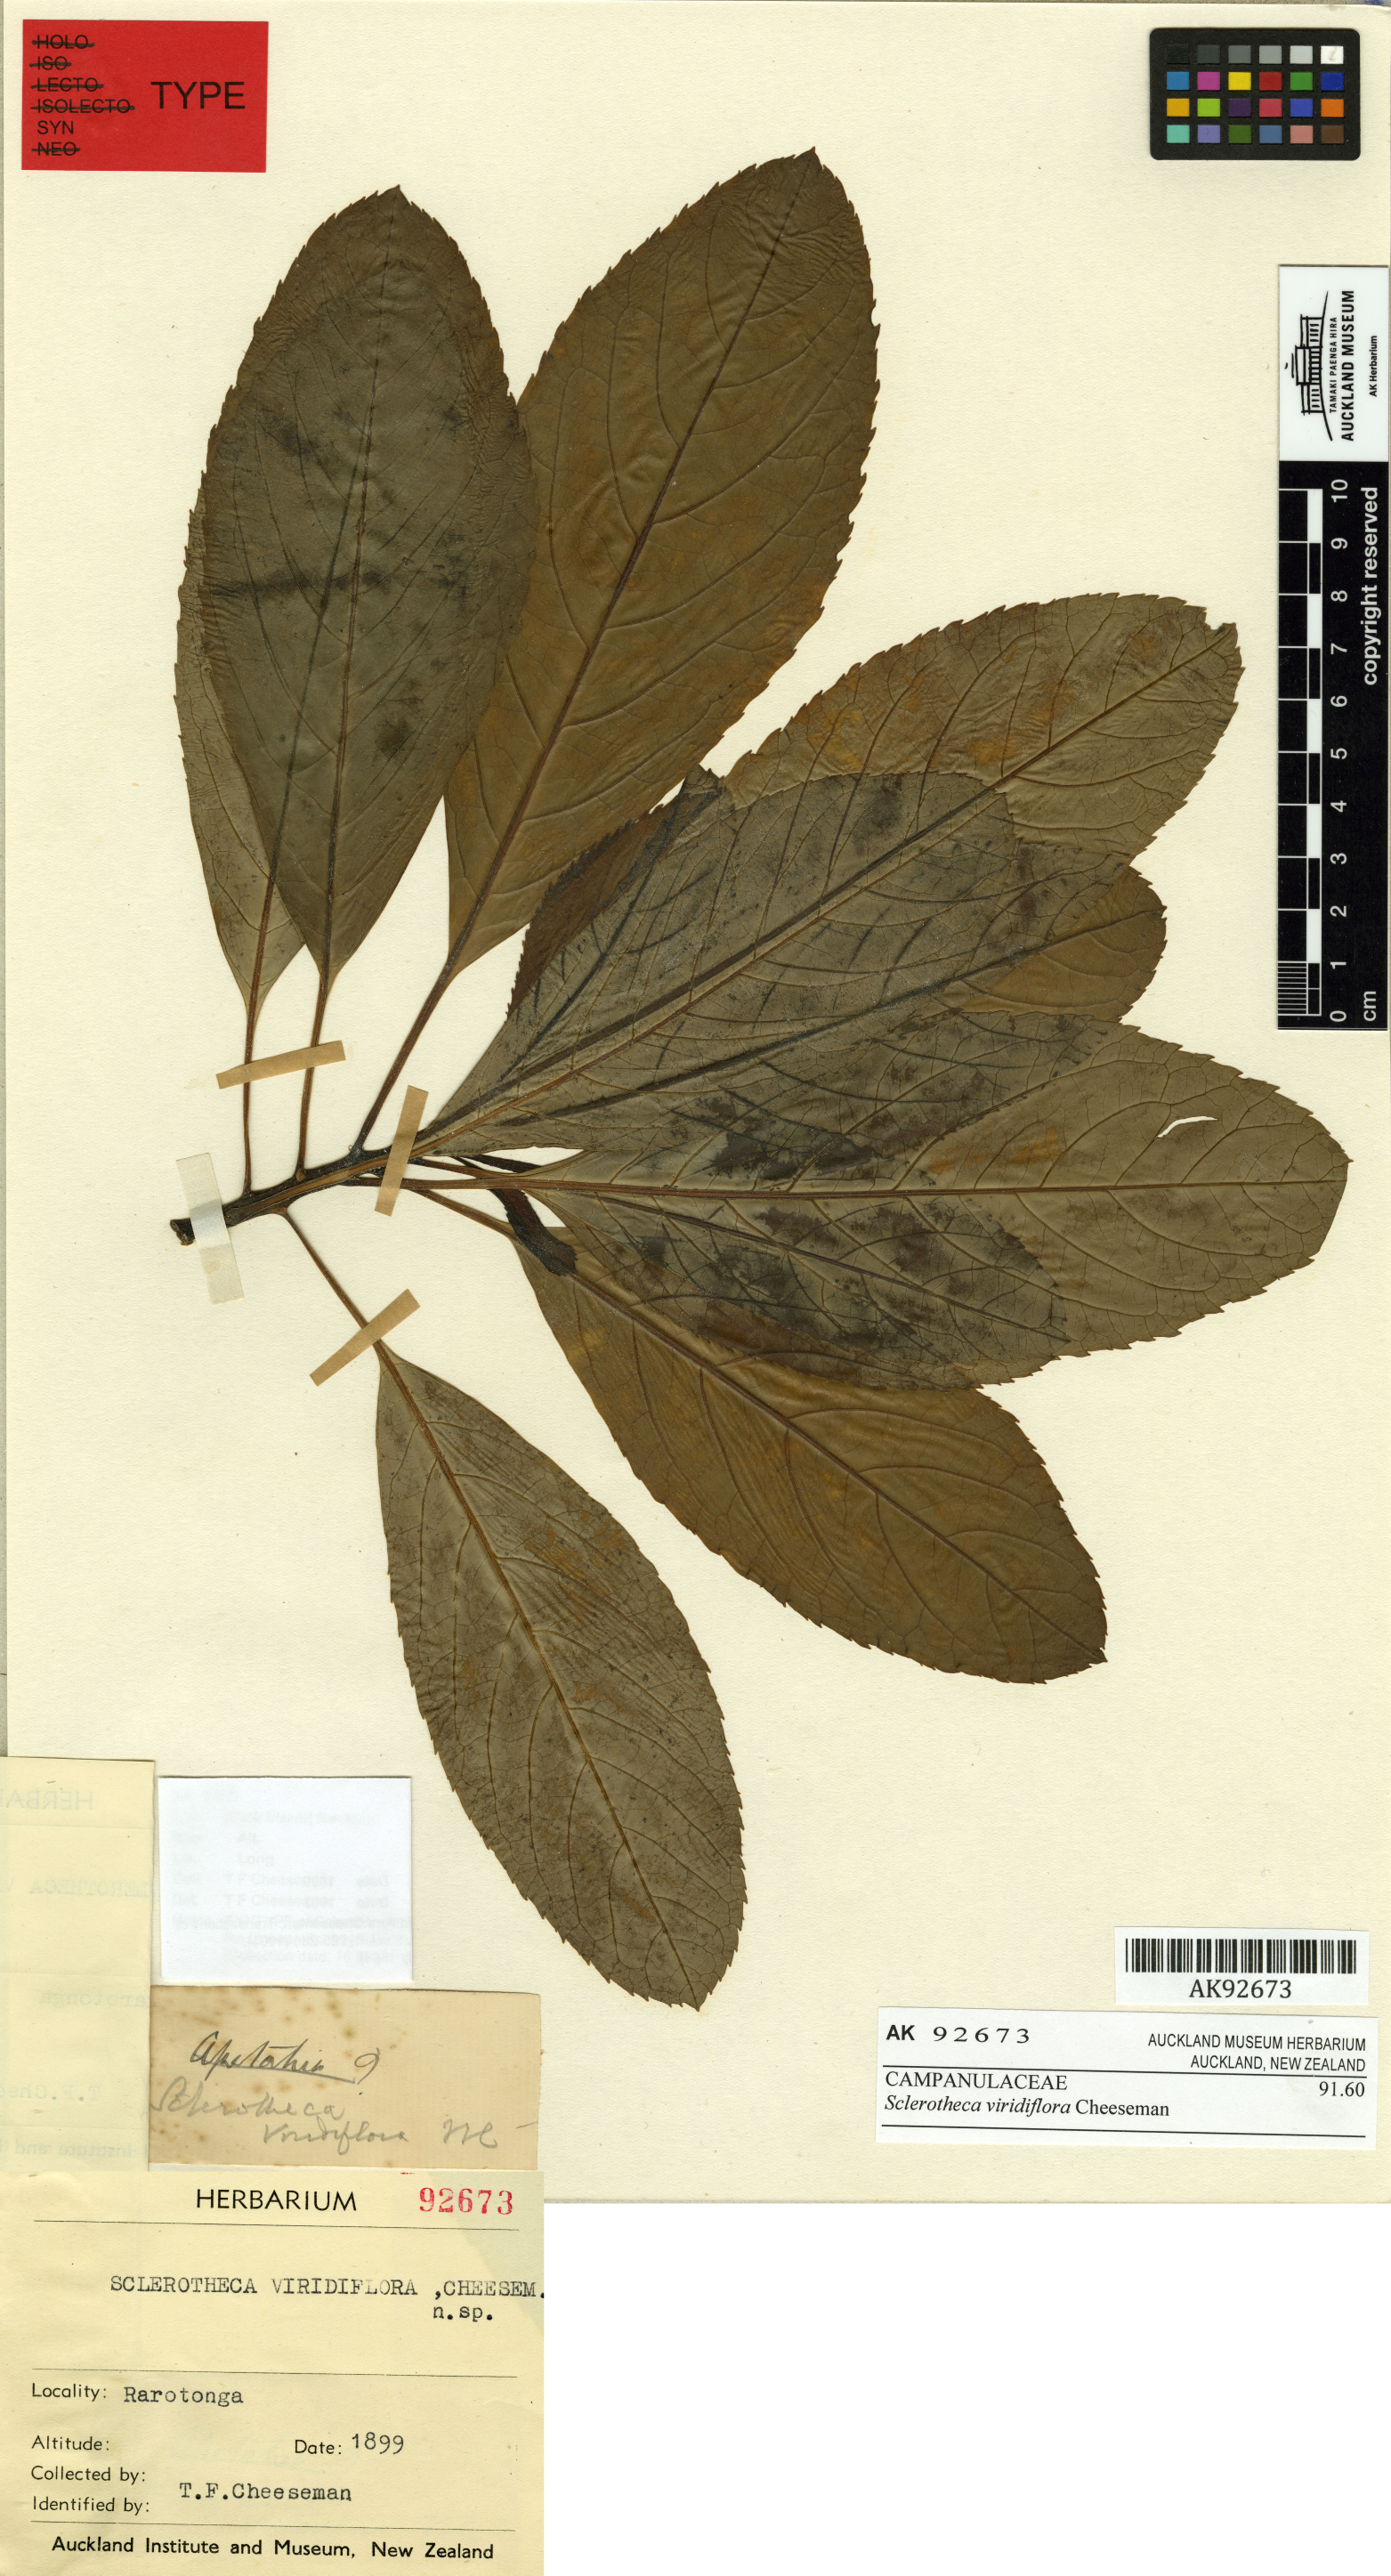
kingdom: Plantae
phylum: Tracheophyta
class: Magnoliopsida
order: Asterales
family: Campanulaceae
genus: Sclerotheca
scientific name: Sclerotheca viridiflora
